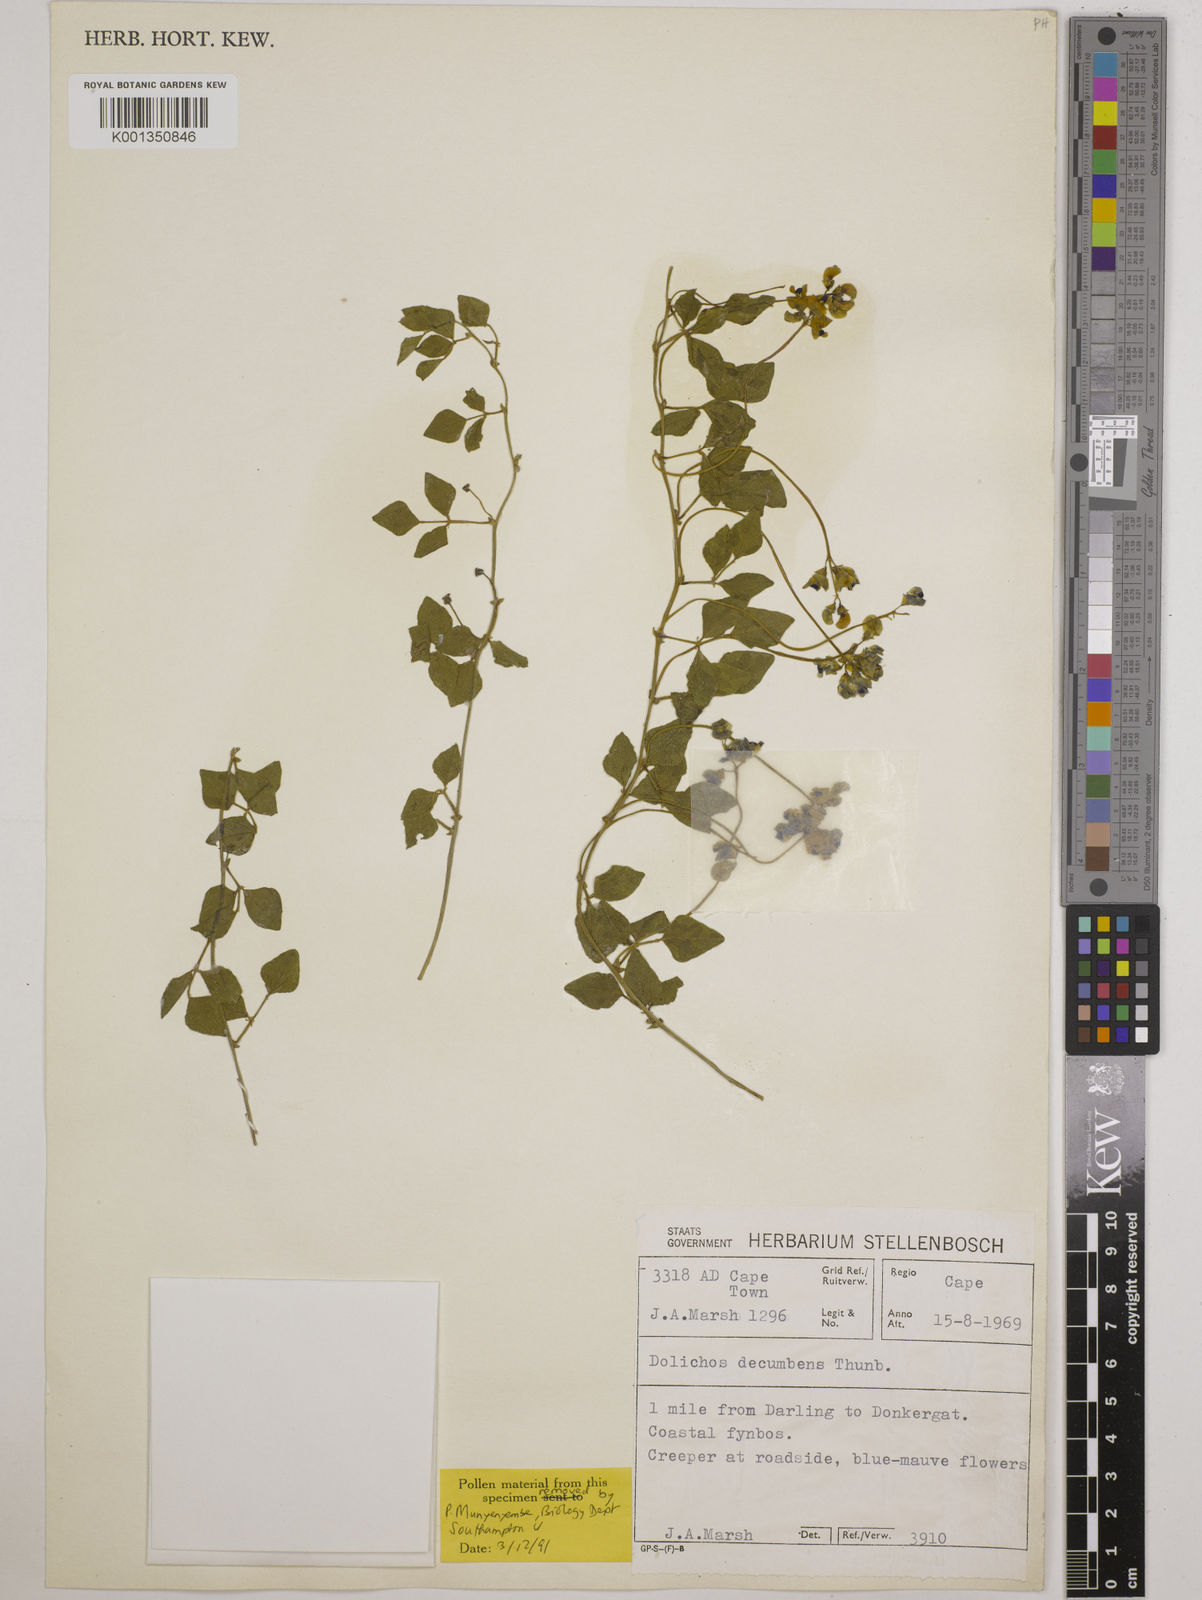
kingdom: Plantae
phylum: Tracheophyta
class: Magnoliopsida
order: Fabales
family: Fabaceae
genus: Dolichos
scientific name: Dolichos decumbens
